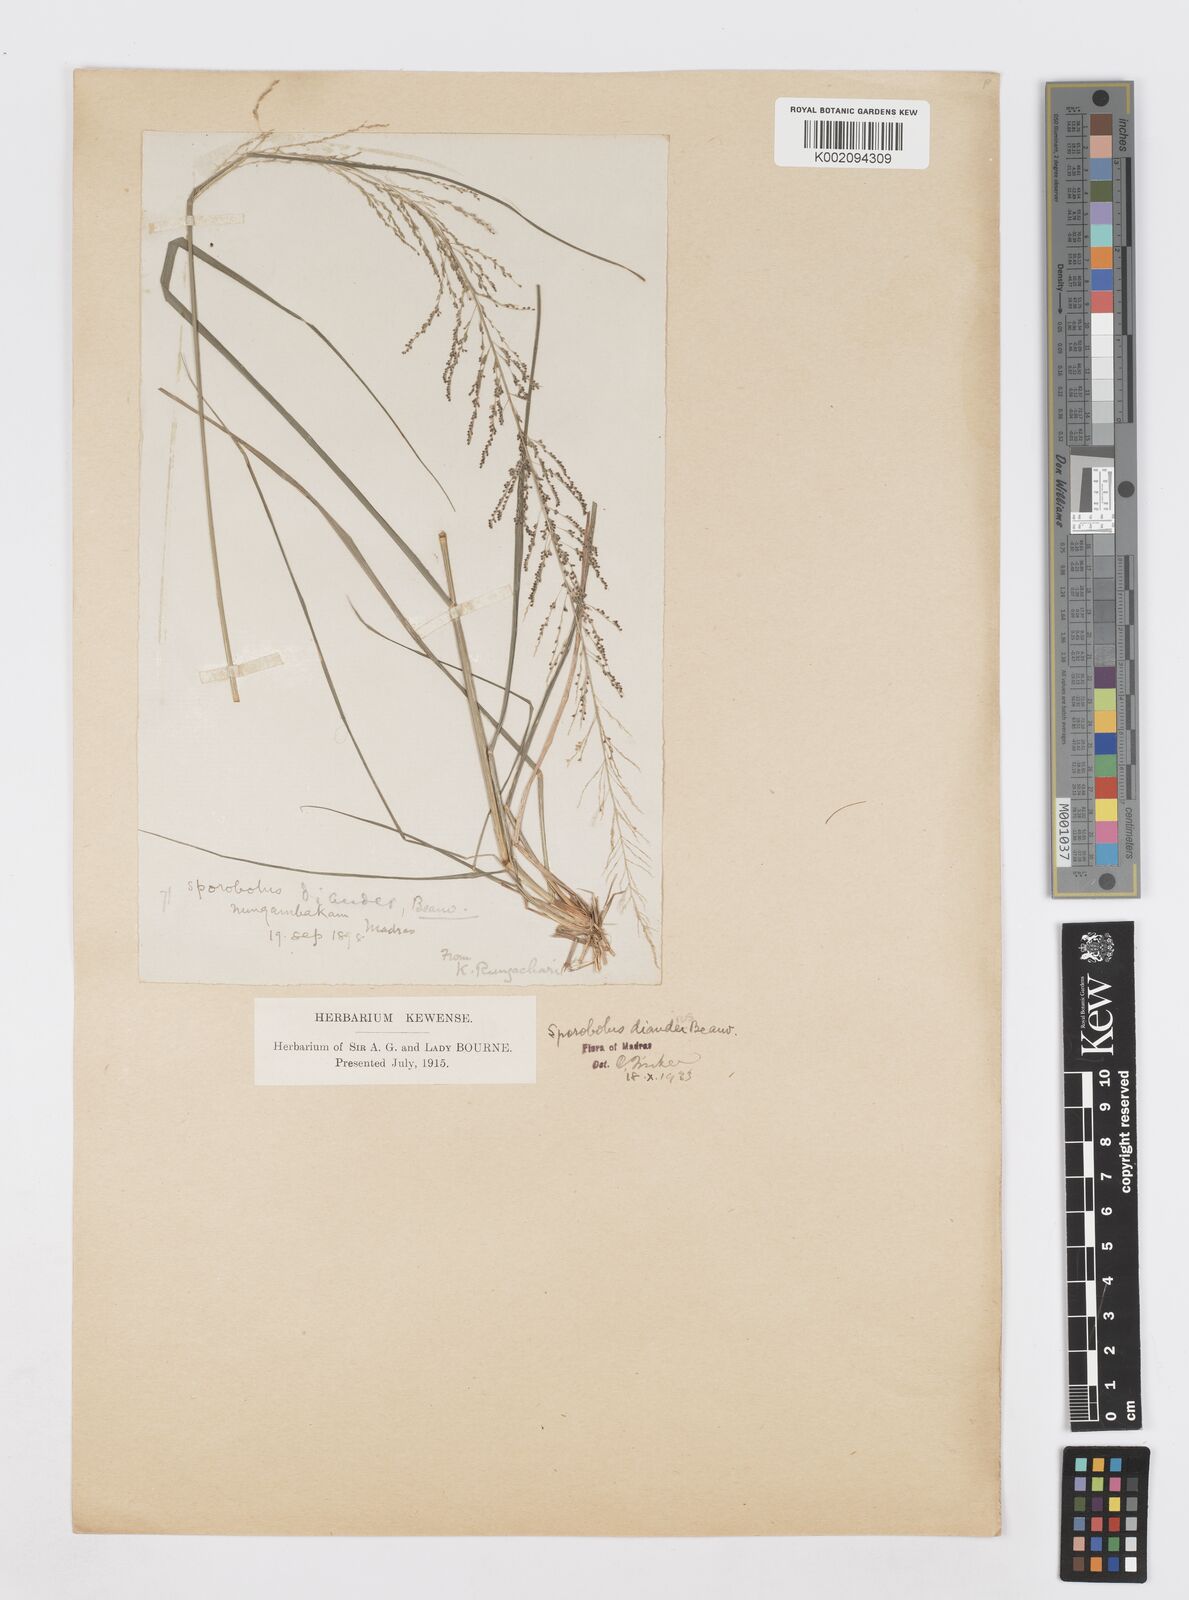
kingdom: Plantae
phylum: Tracheophyta
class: Liliopsida
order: Poales
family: Poaceae
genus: Sporobolus
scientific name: Sporobolus diandrus
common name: Tussock dropseed
